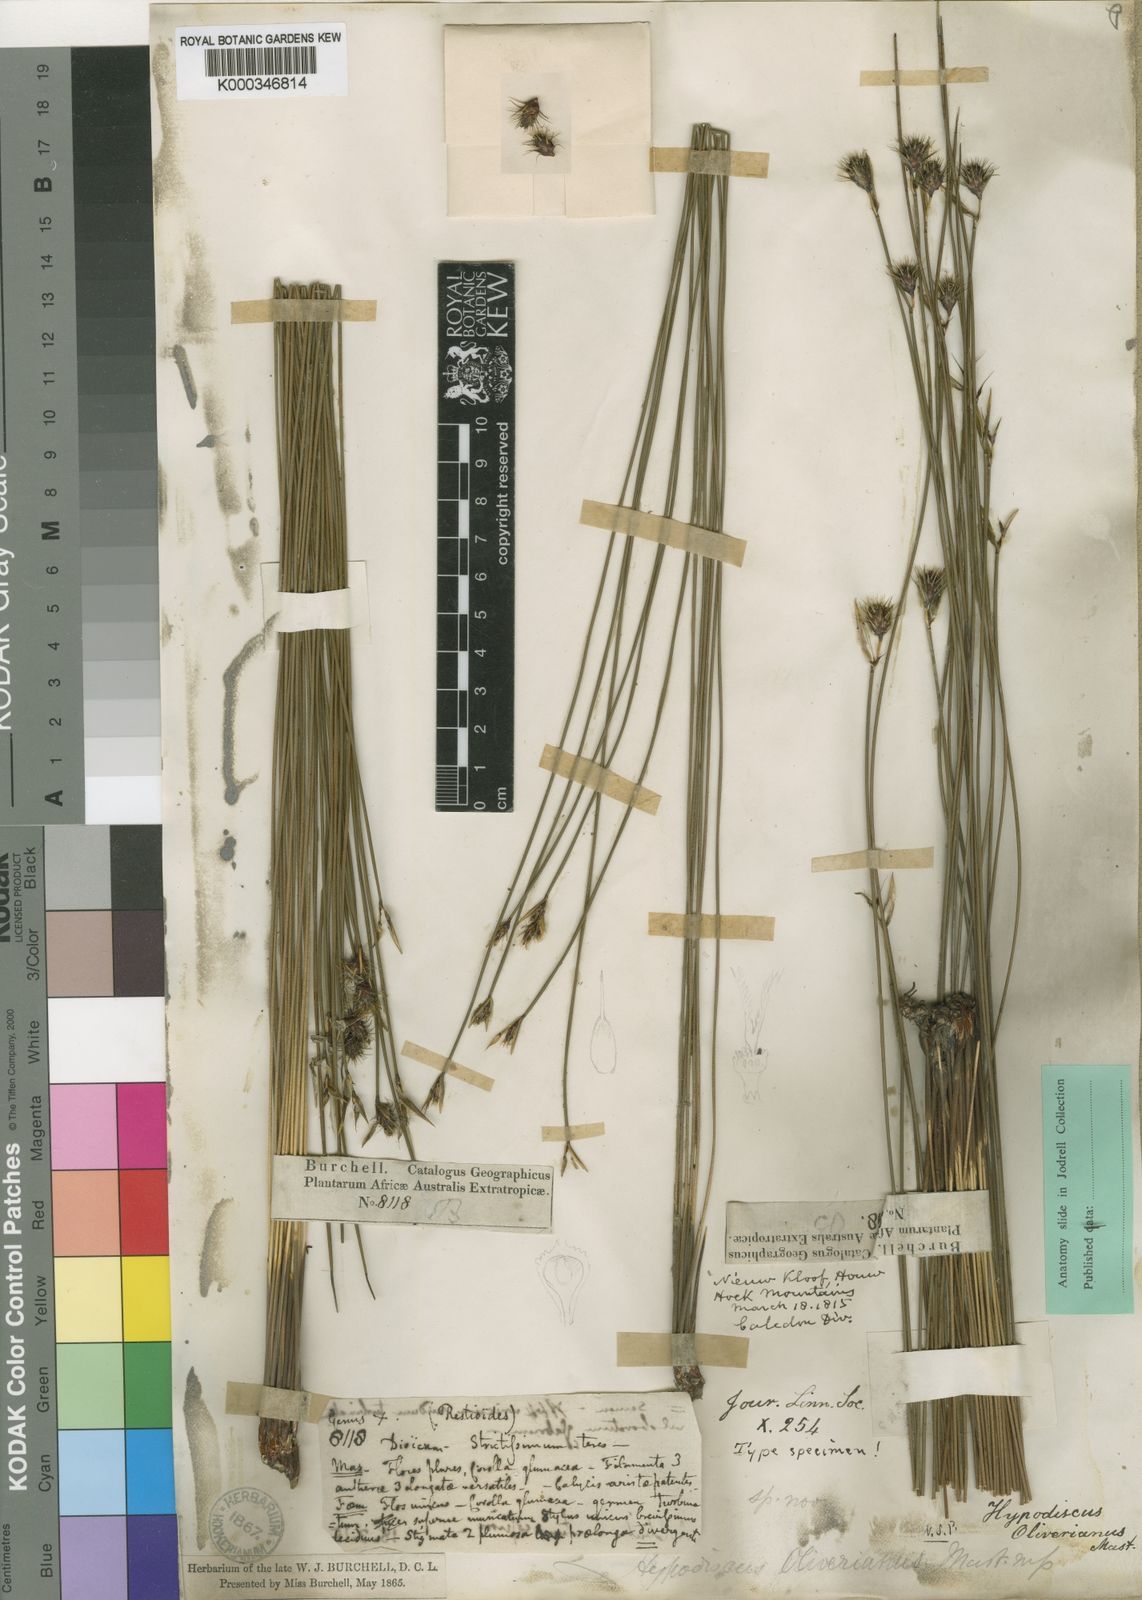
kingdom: Plantae
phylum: Tracheophyta
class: Liliopsida
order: Poales
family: Restionaceae
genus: Hypodiscus
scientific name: Hypodiscus alboaristatus
